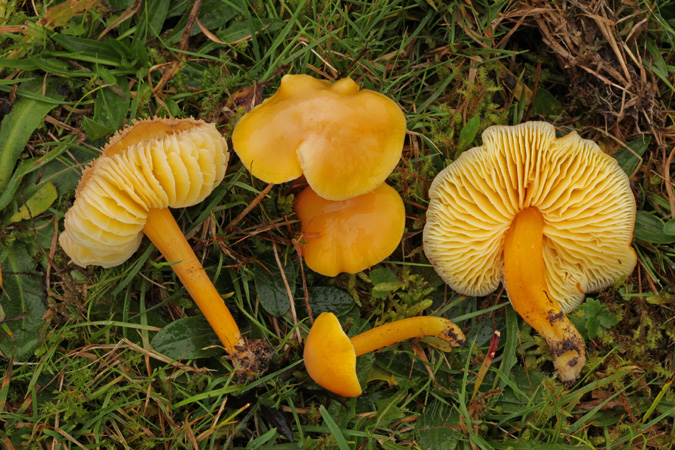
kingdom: Fungi
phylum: Basidiomycota
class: Agaricomycetes
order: Agaricales
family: Hygrophoraceae
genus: Hygrocybe
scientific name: Hygrocybe chlorophana
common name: gul vokshat
